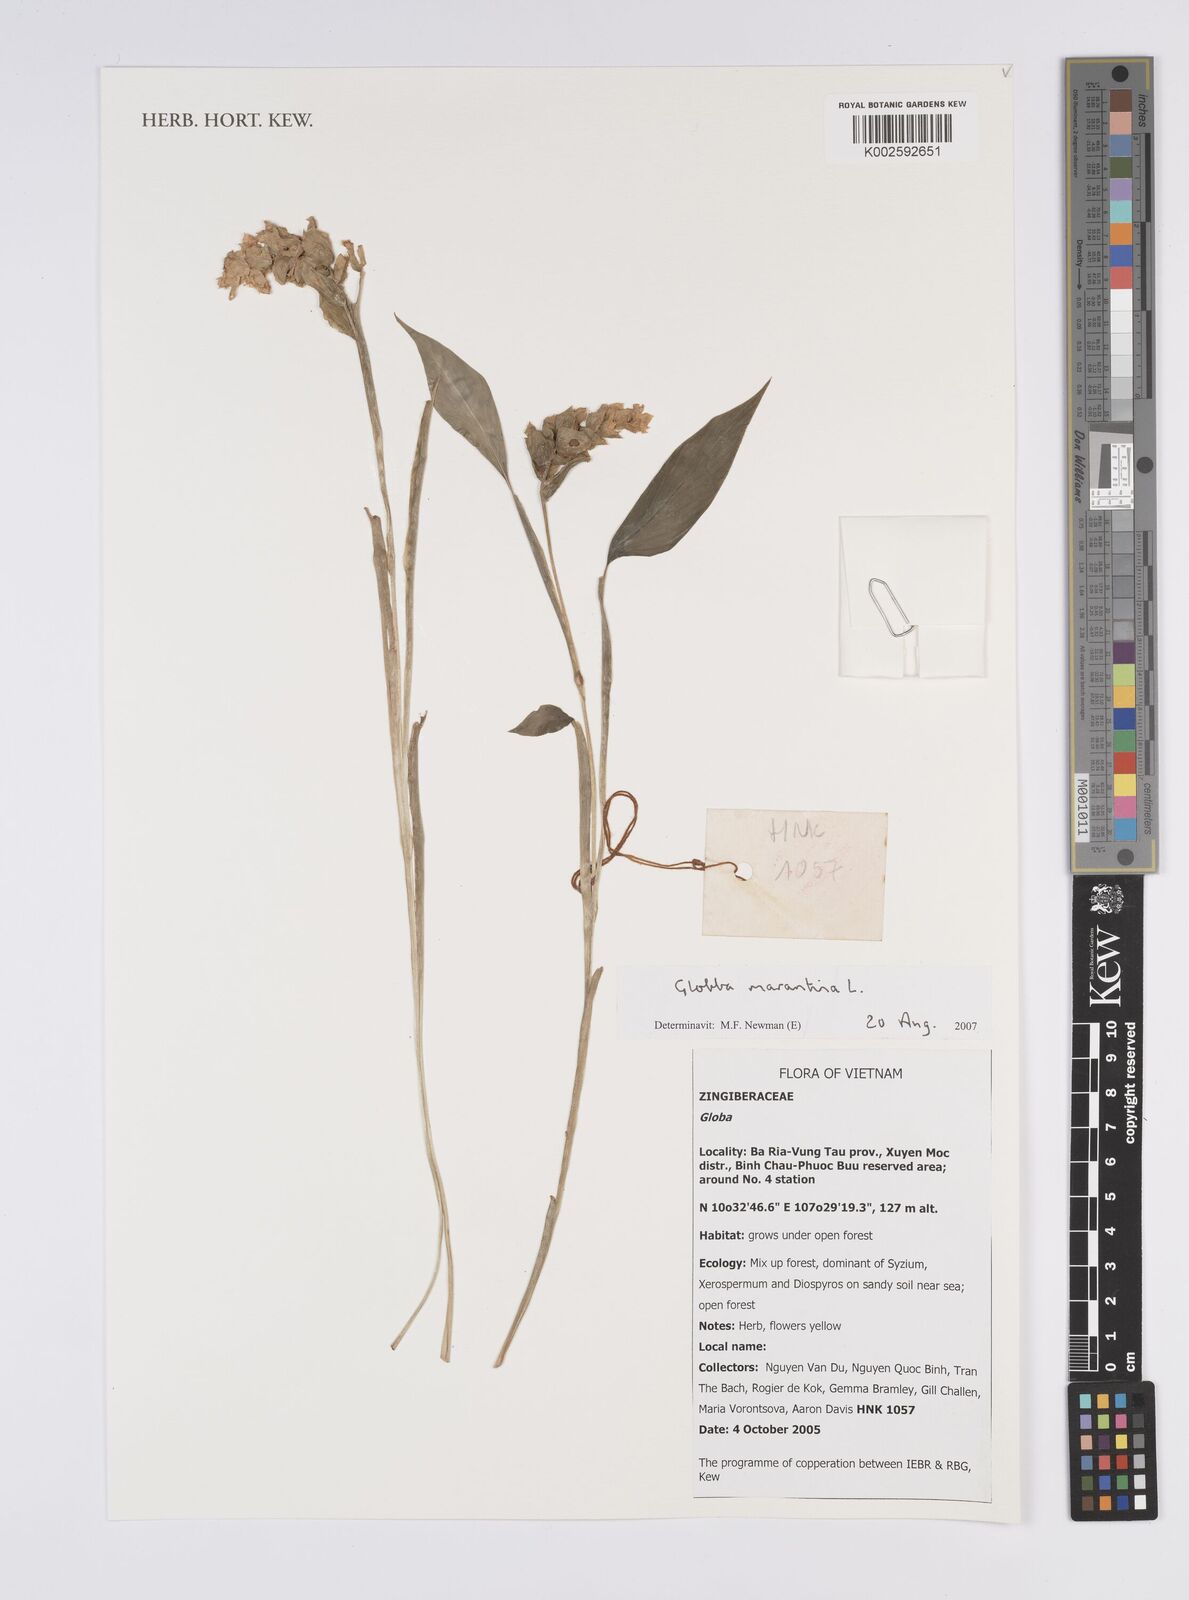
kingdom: Plantae
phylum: Tracheophyta
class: Liliopsida
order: Zingiberales
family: Zingiberaceae
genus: Globba
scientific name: Globba marantina
